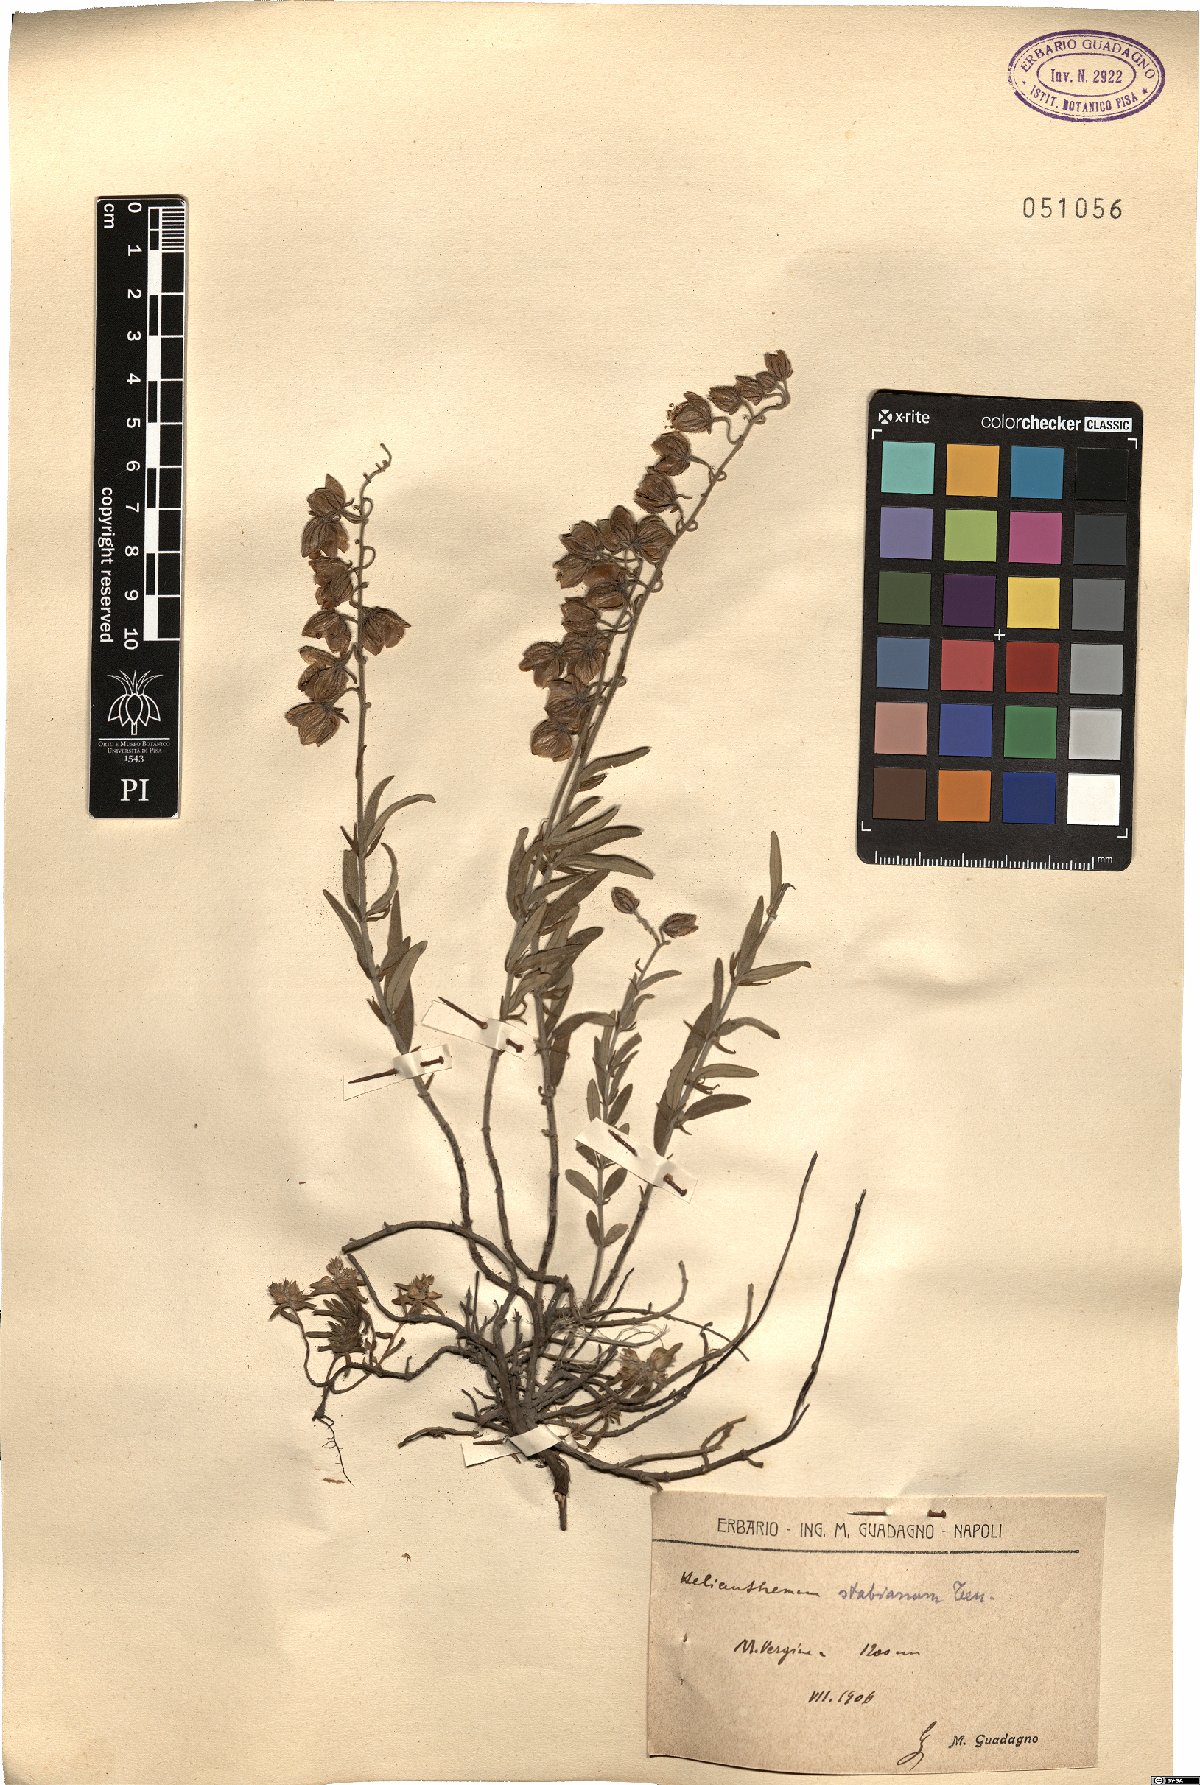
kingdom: Plantae
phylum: Tracheophyta
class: Magnoliopsida
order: Malvales
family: Cistaceae
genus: Helianthemum
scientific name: Helianthemum croceum
